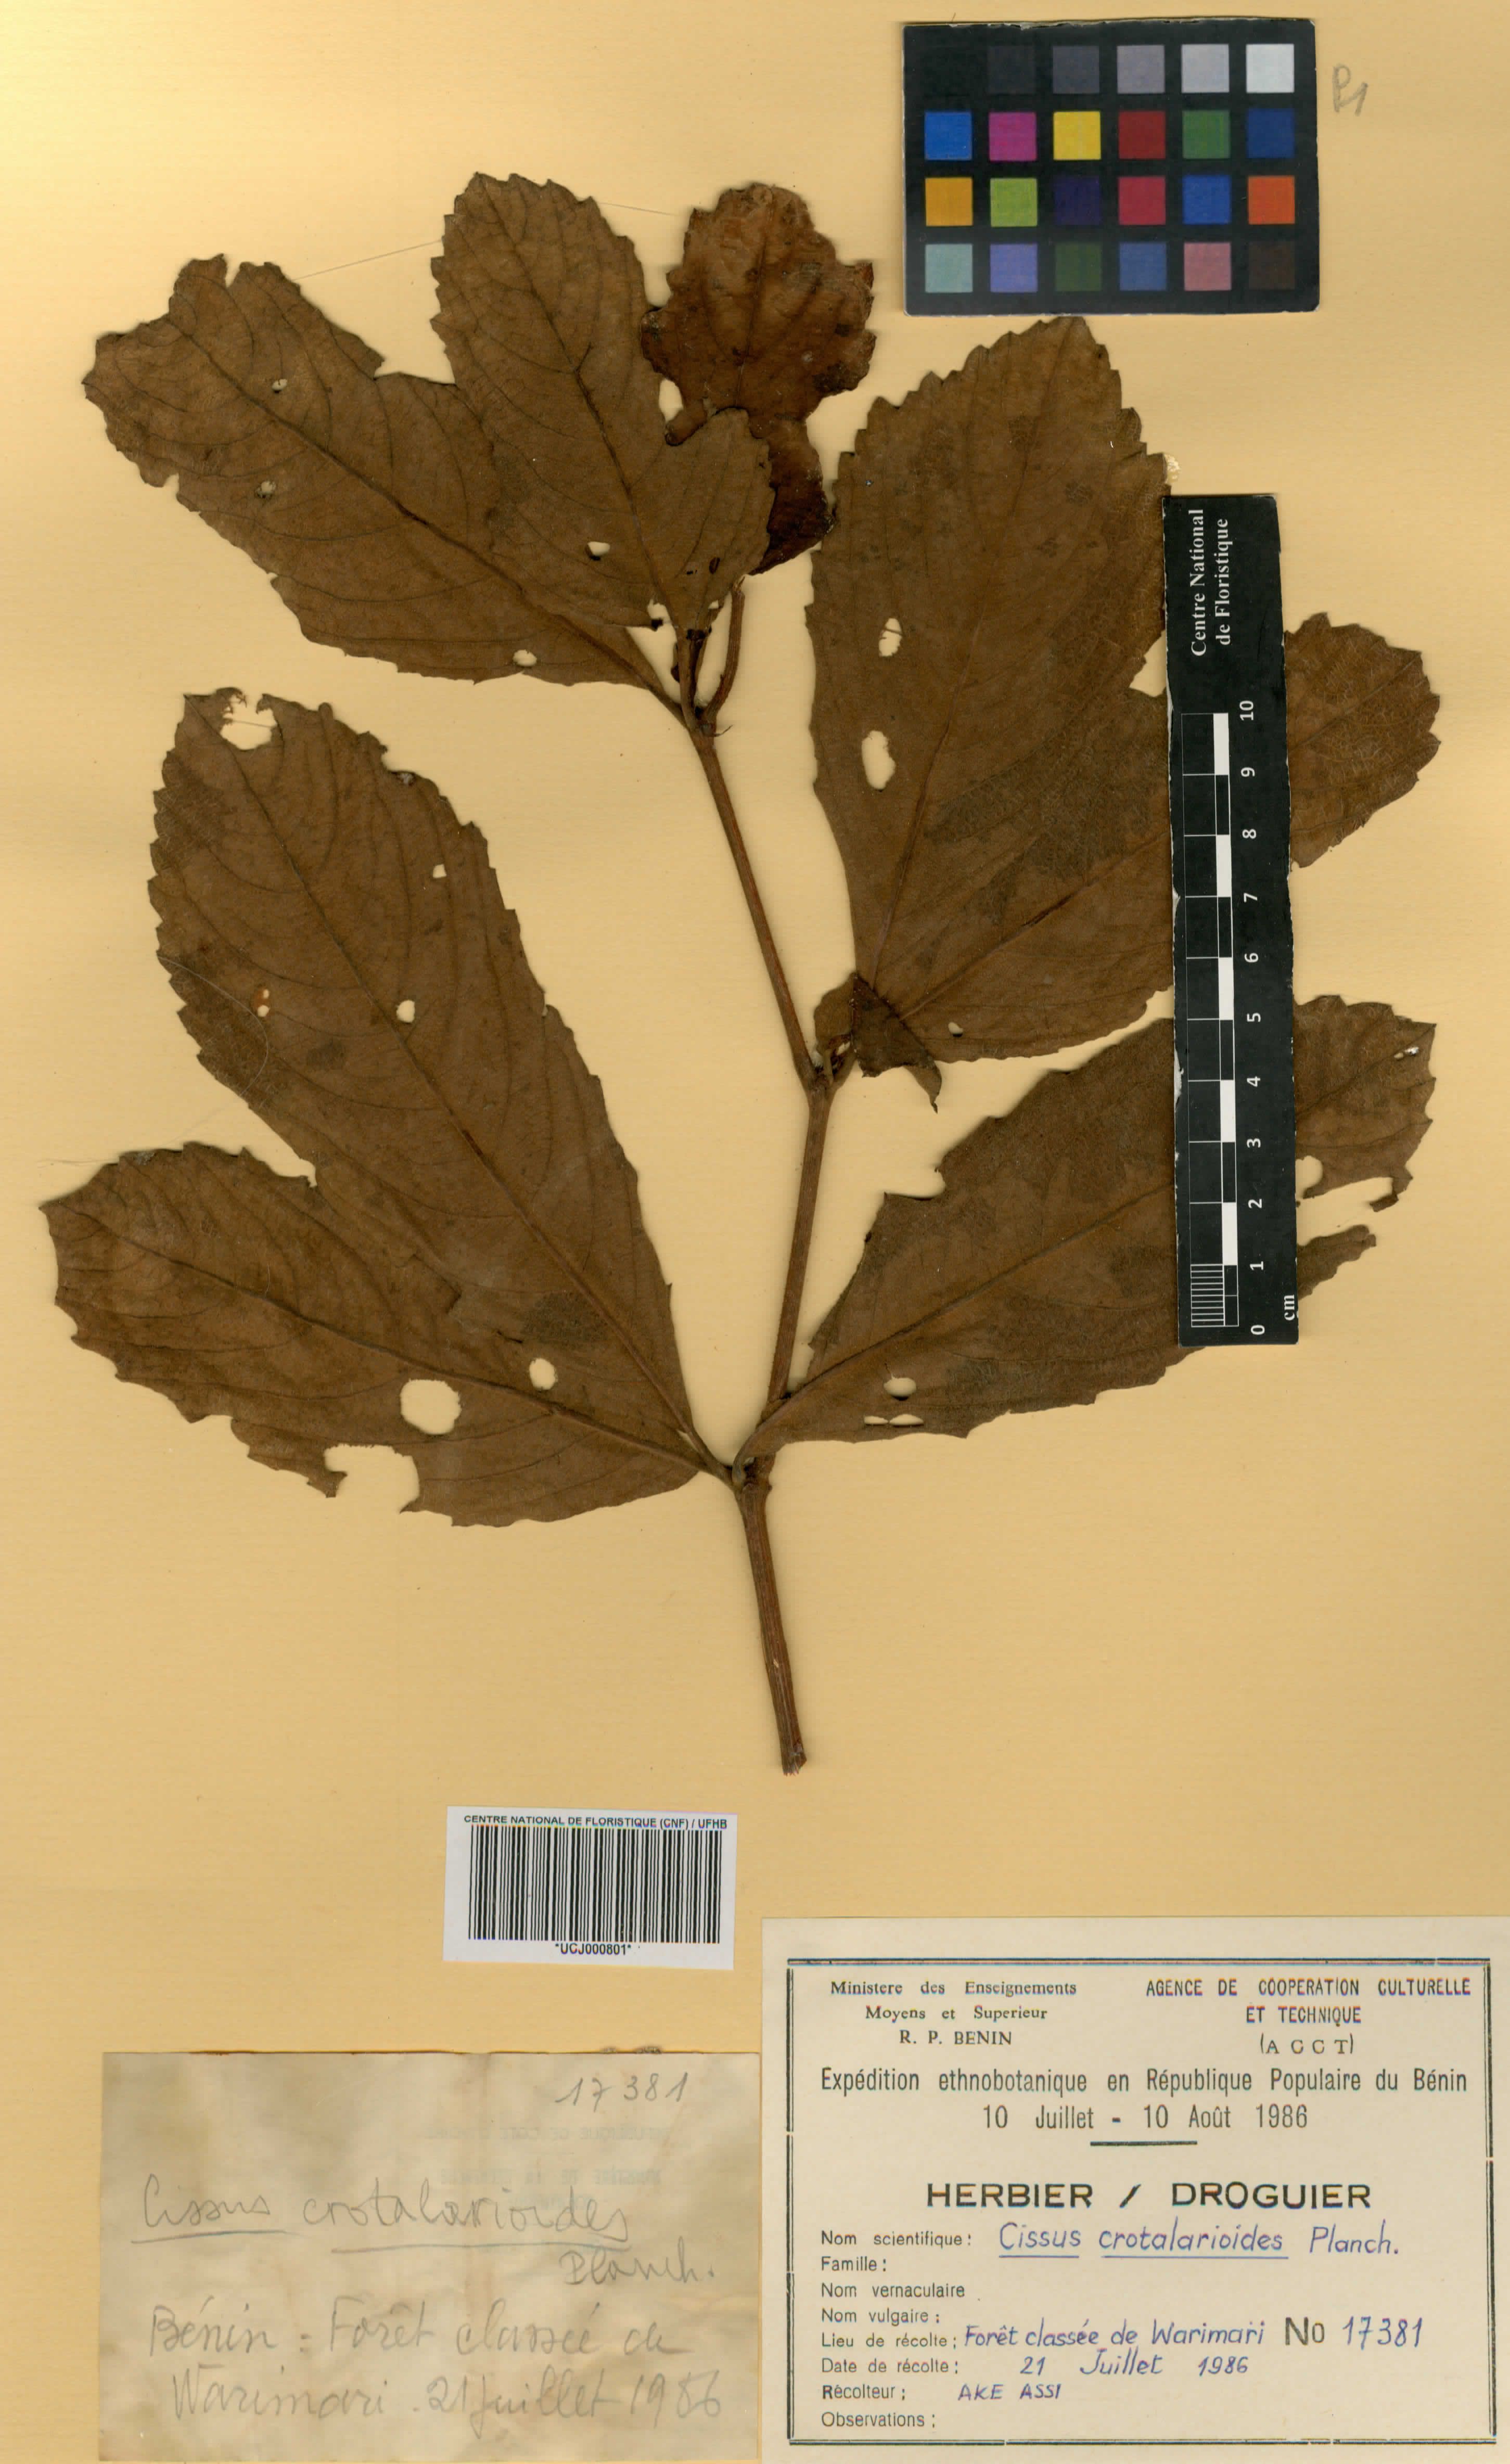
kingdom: Plantae
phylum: Tracheophyta
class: Magnoliopsida
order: Vitales
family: Vitaceae
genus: Cyphostemma
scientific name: Cyphostemma crotalarioides
